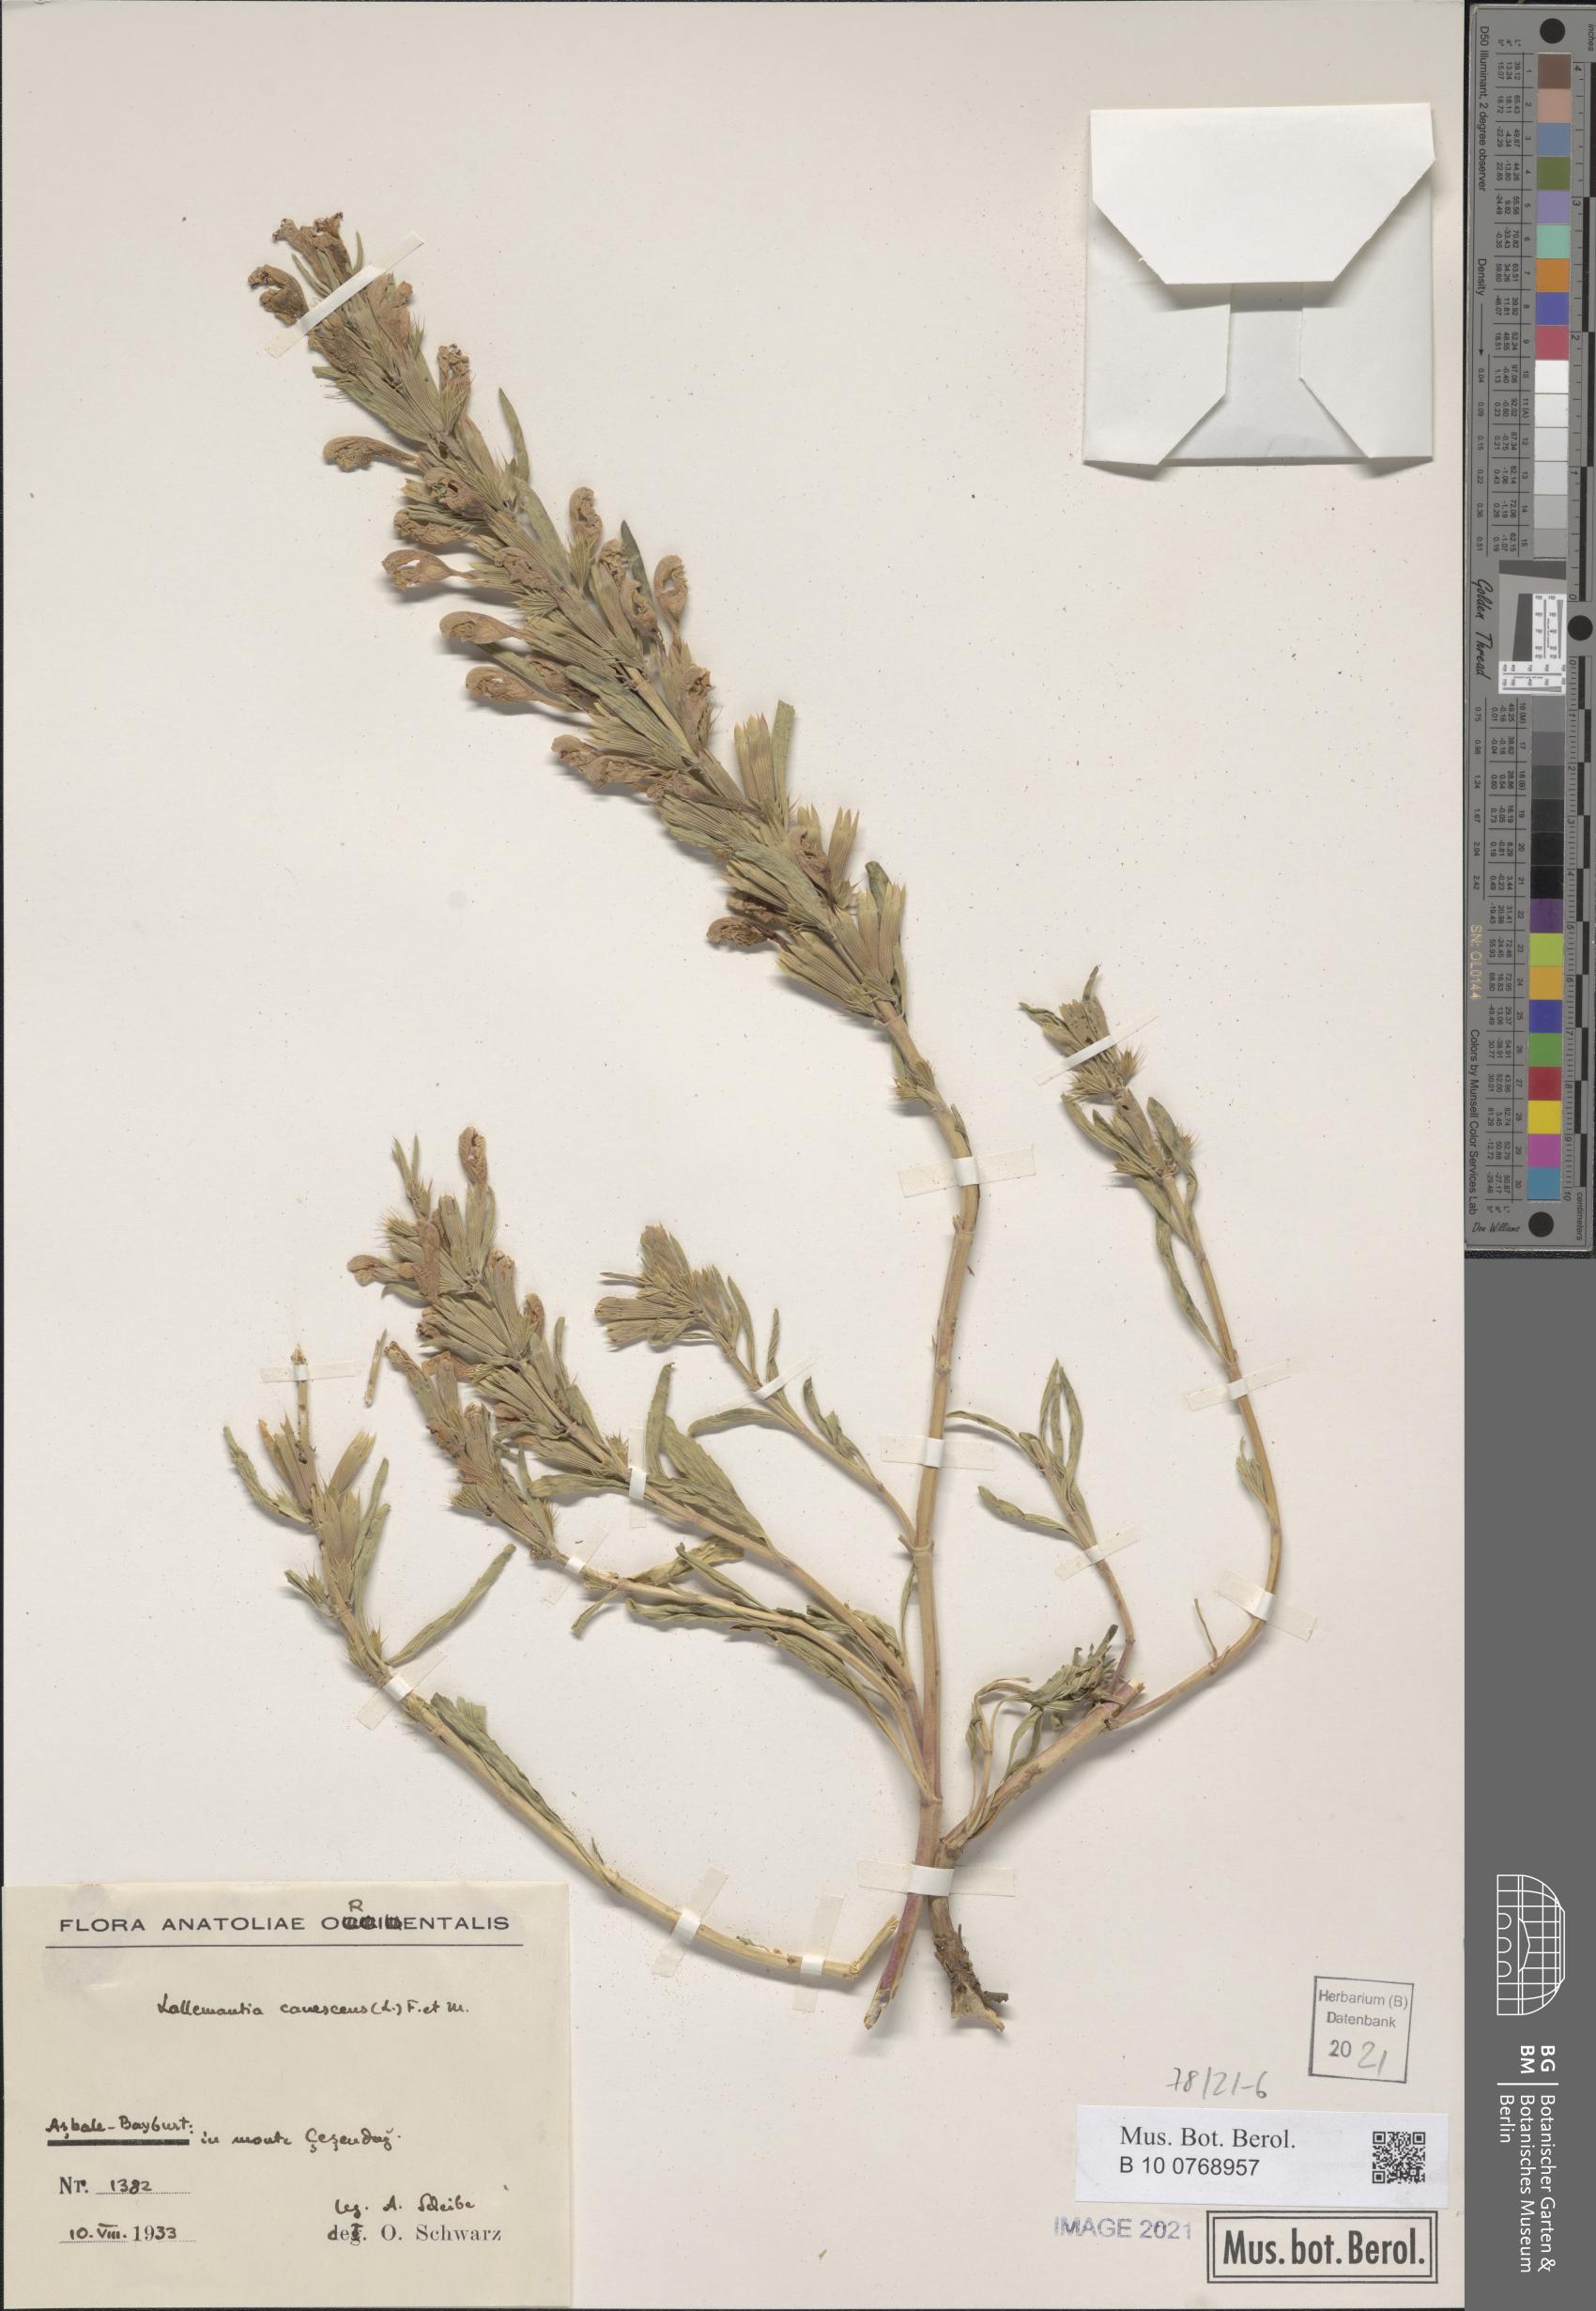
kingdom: Plantae
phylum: Tracheophyta
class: Magnoliopsida
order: Lamiales
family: Lamiaceae
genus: Lallemantia
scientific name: Lallemantia canescens
